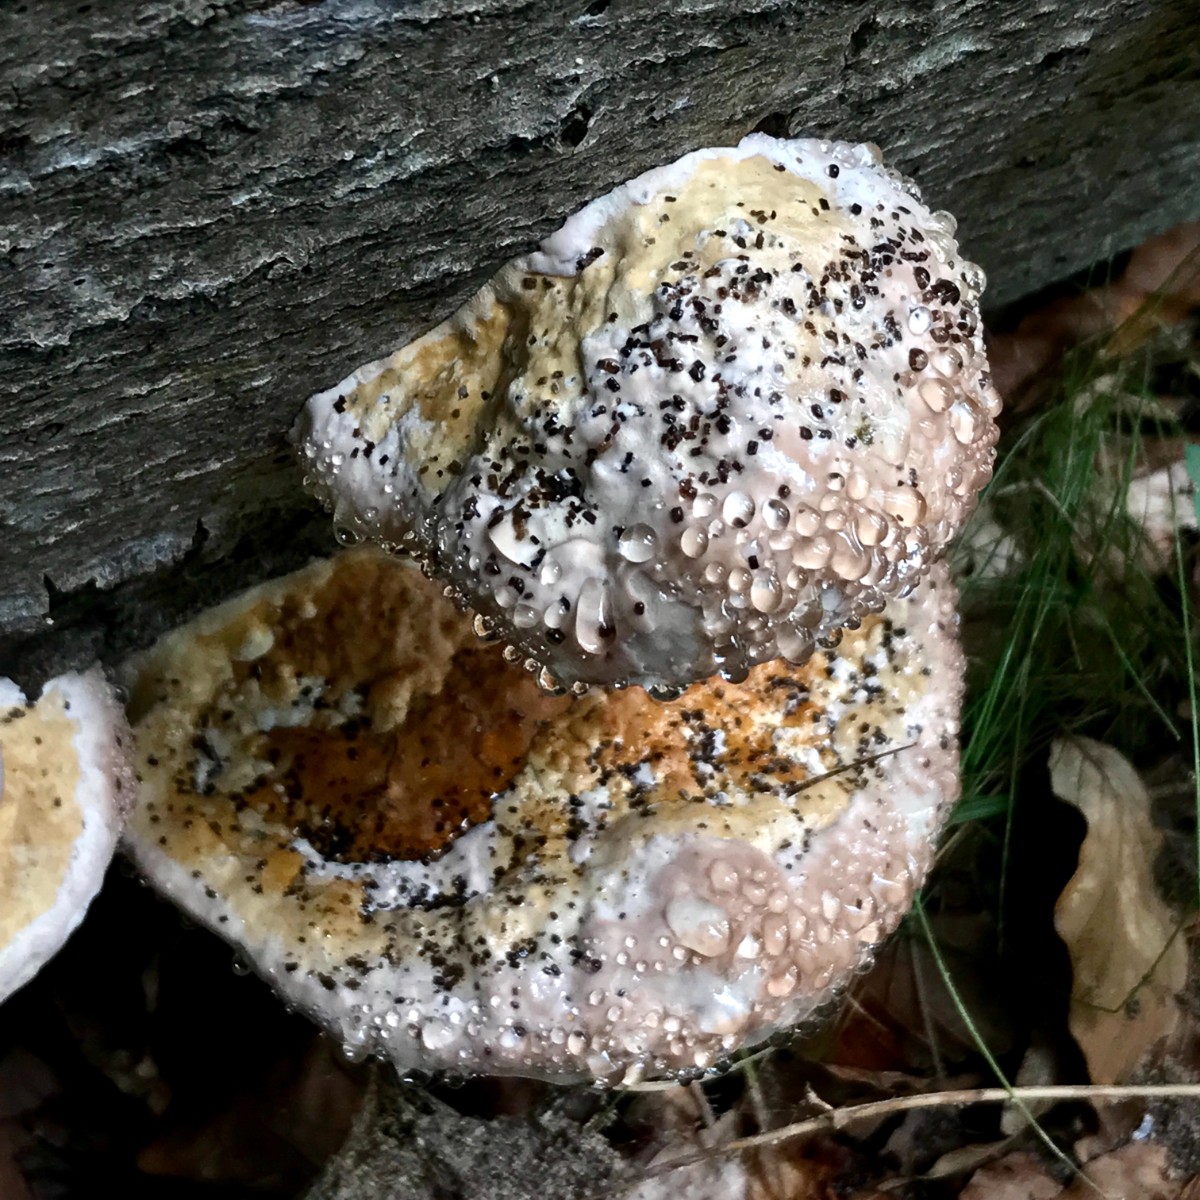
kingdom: Fungi
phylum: Basidiomycota
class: Agaricomycetes
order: Polyporales
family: Fomitopsidaceae
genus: Fomitopsis
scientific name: Fomitopsis pinicola
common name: randbæltet hovporesvamp
